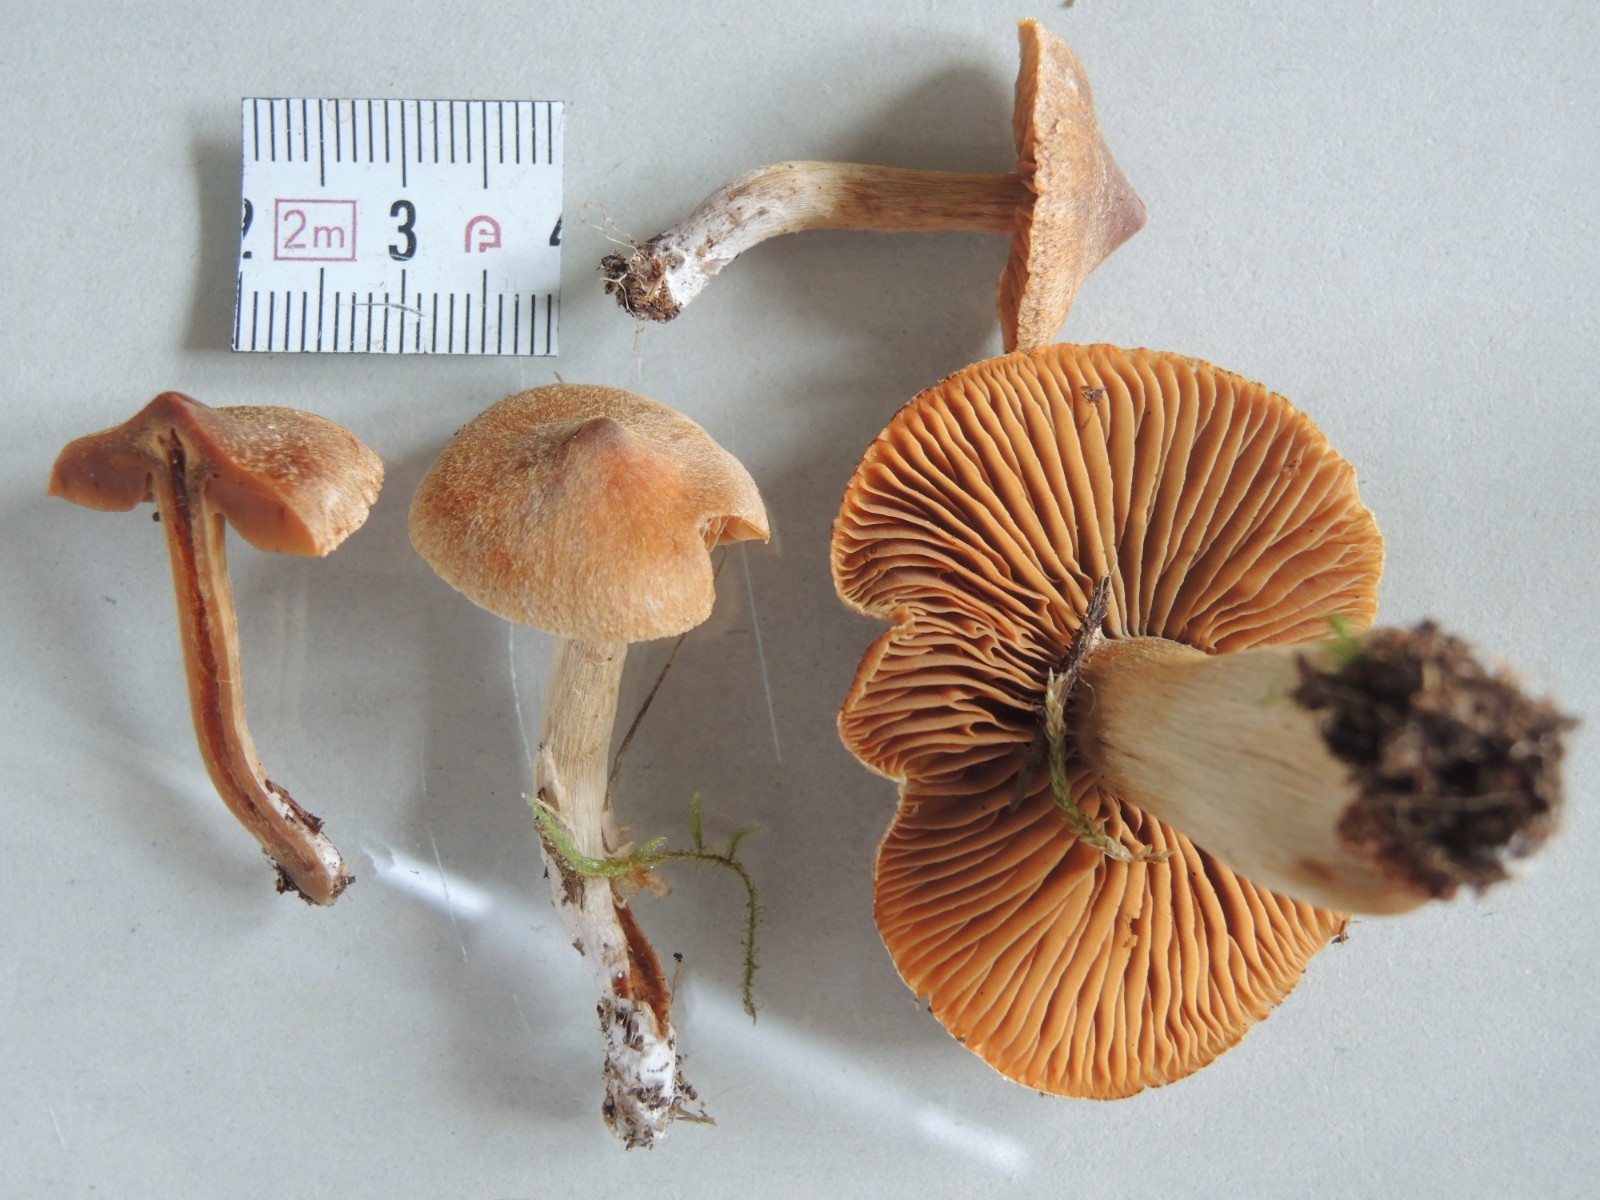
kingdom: Fungi
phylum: Basidiomycota
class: Agaricomycetes
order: Agaricales
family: Cortinariaceae
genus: Cortinarius
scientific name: Cortinarius pinisquamulosus
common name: finskællet slørhat
